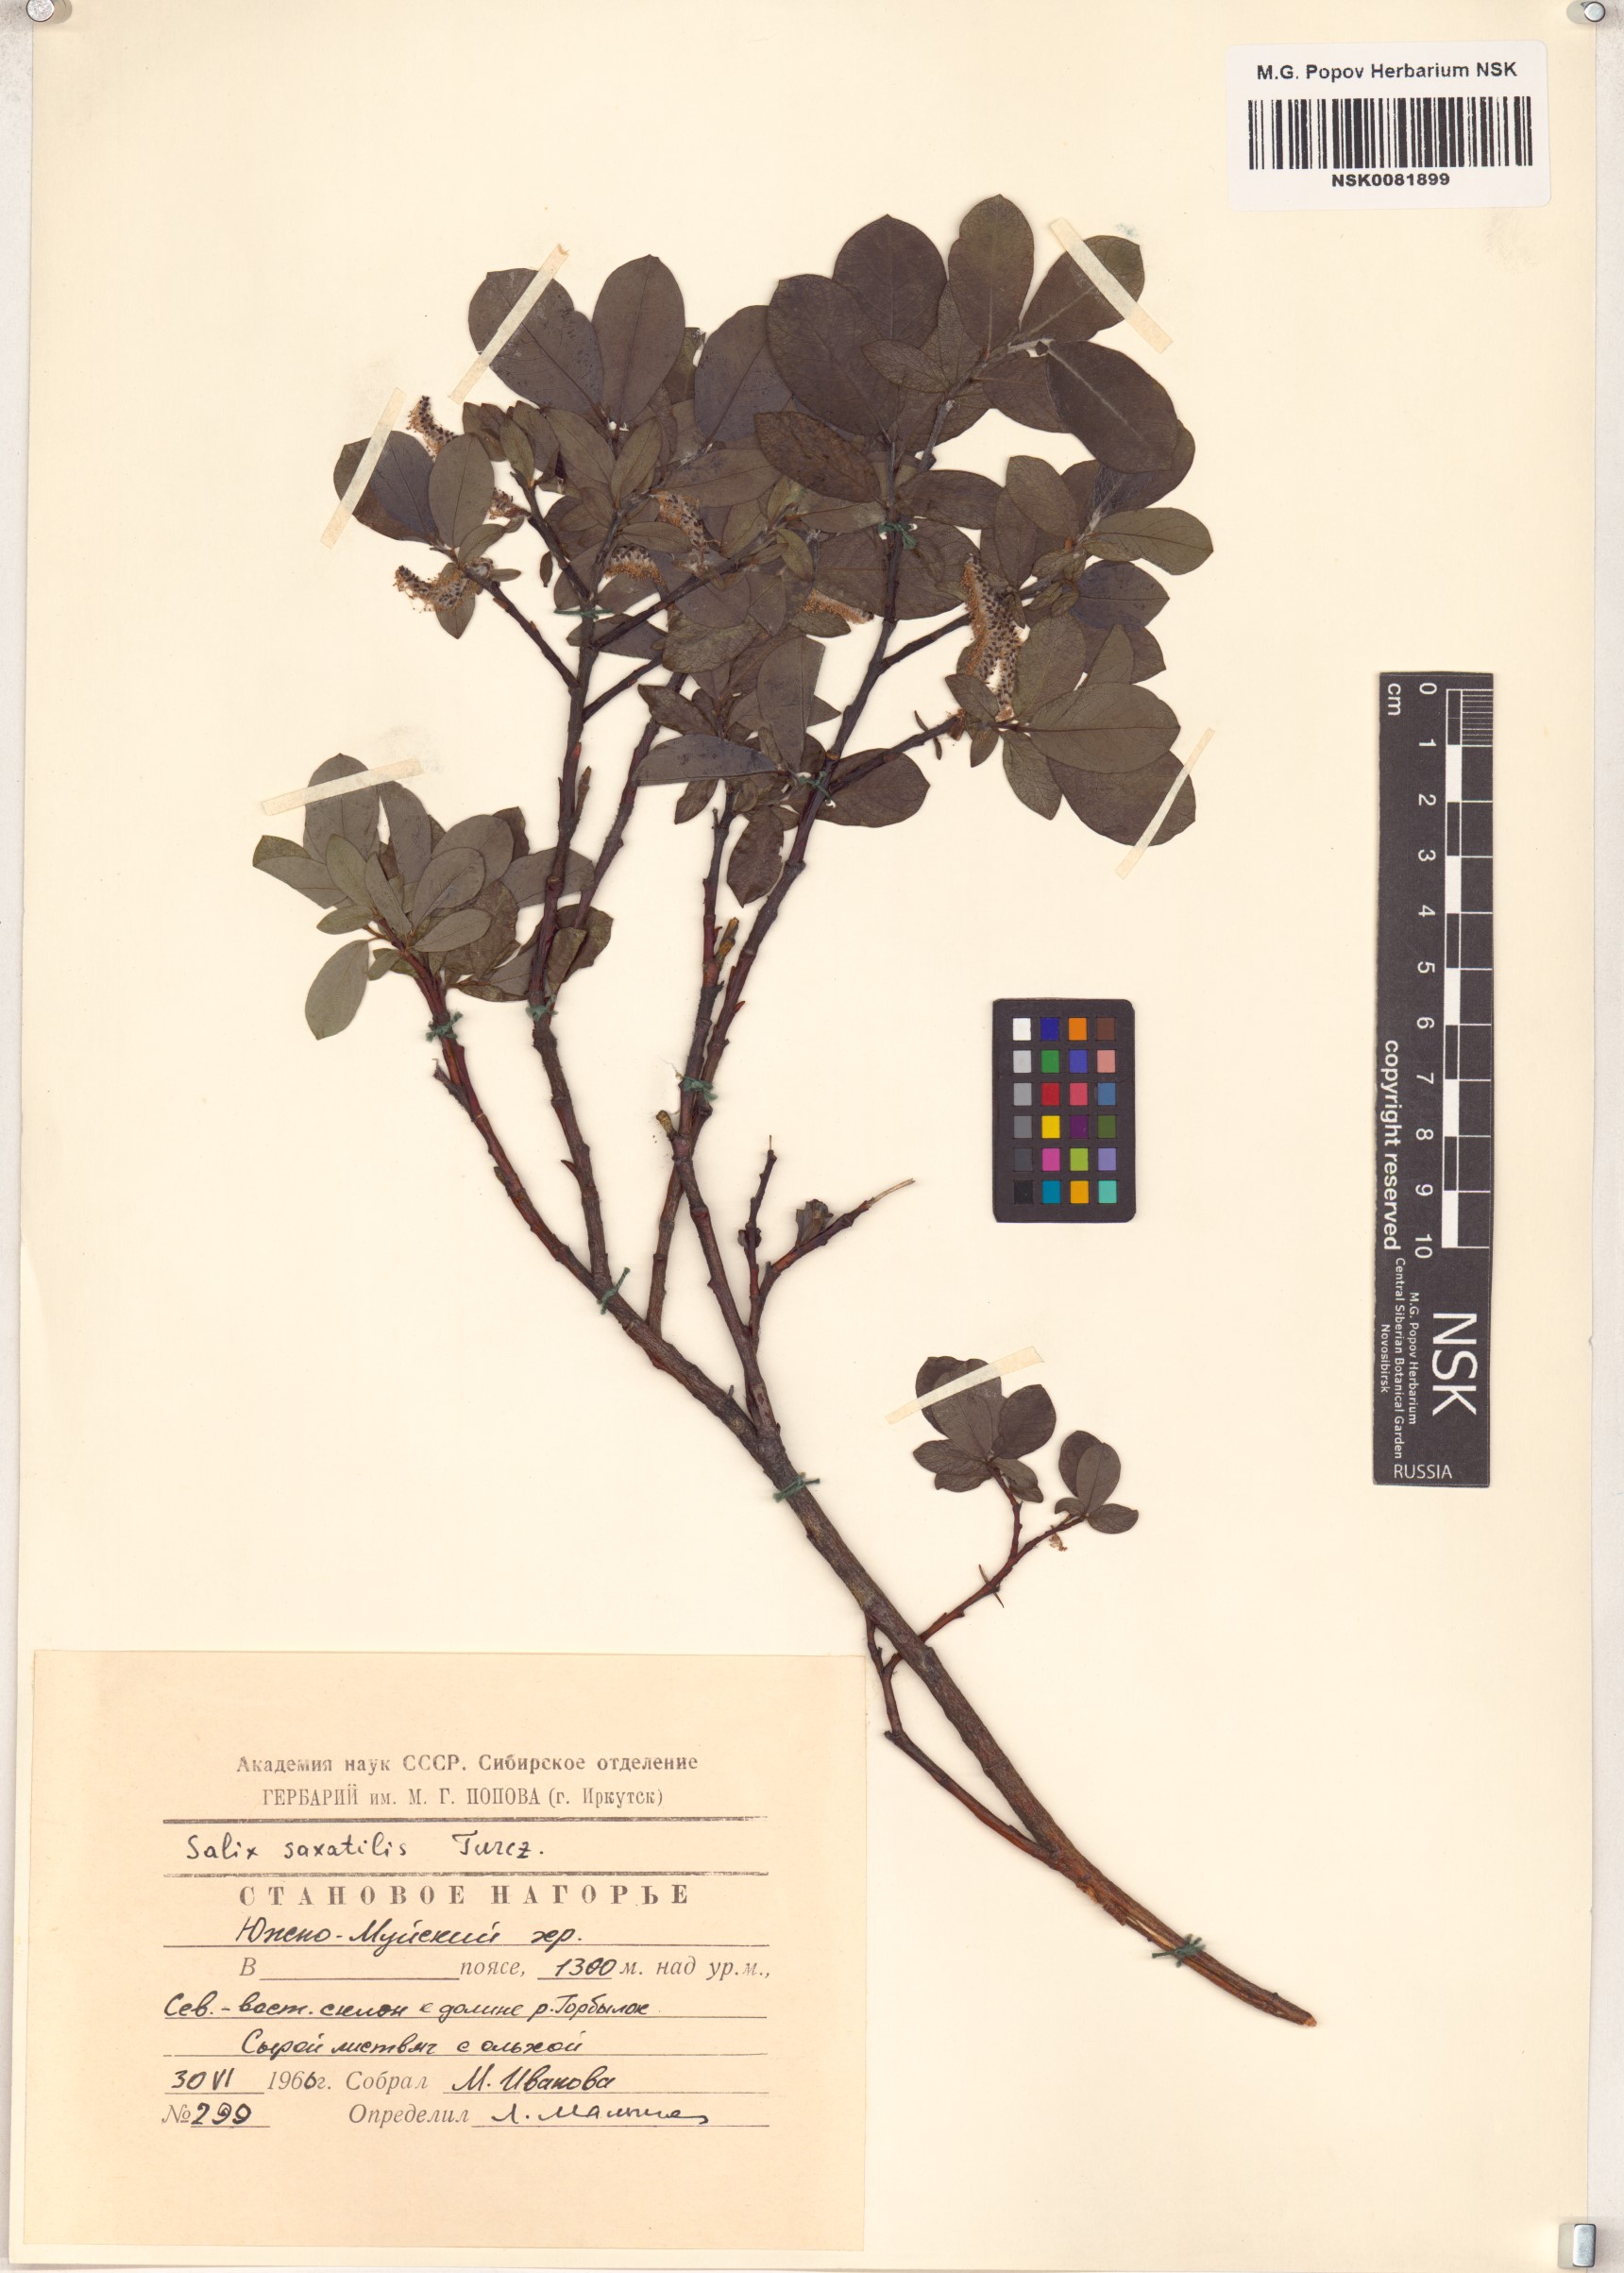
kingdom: Plantae
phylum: Tracheophyta
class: Magnoliopsida
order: Malpighiales
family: Salicaceae
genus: Salix
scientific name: Salix saxatilis
